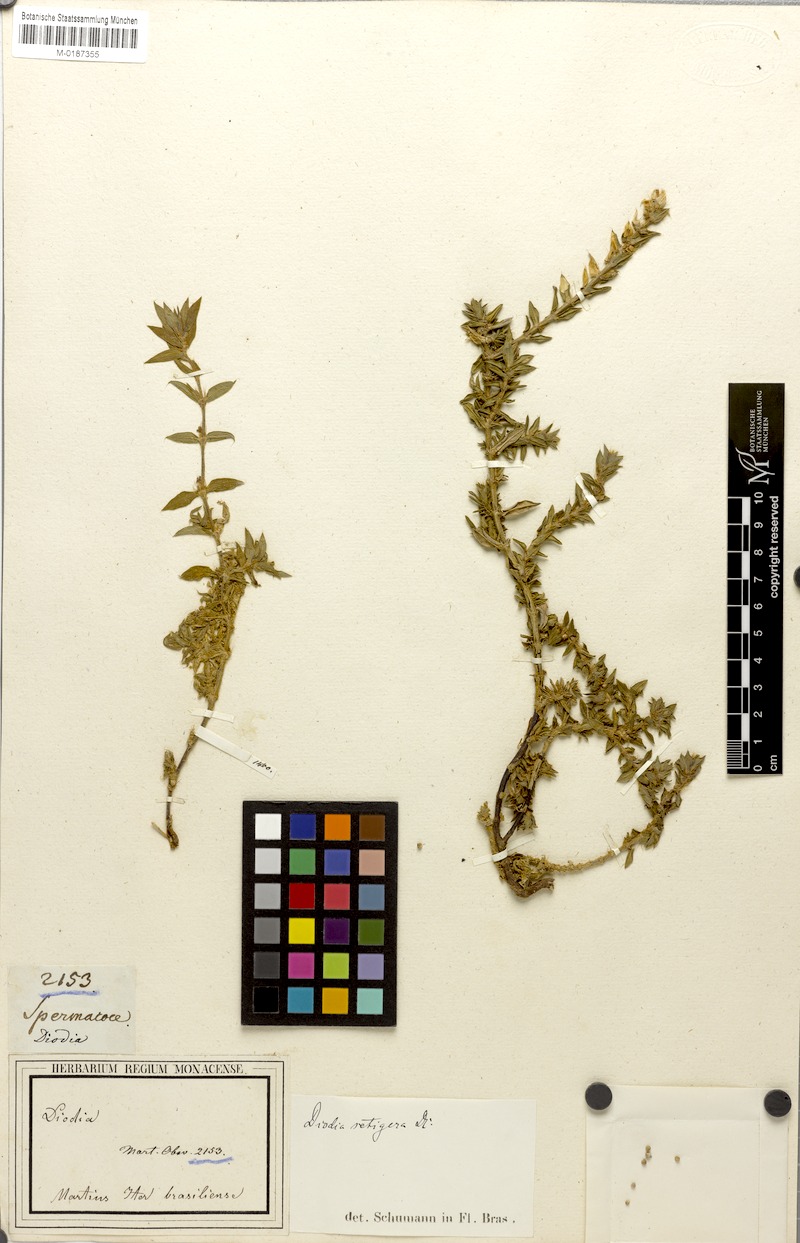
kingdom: Plantae
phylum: Tracheophyta
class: Magnoliopsida
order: Gentianales
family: Rubiaceae
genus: Hexasepalum
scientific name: Hexasepalum apiculatum
